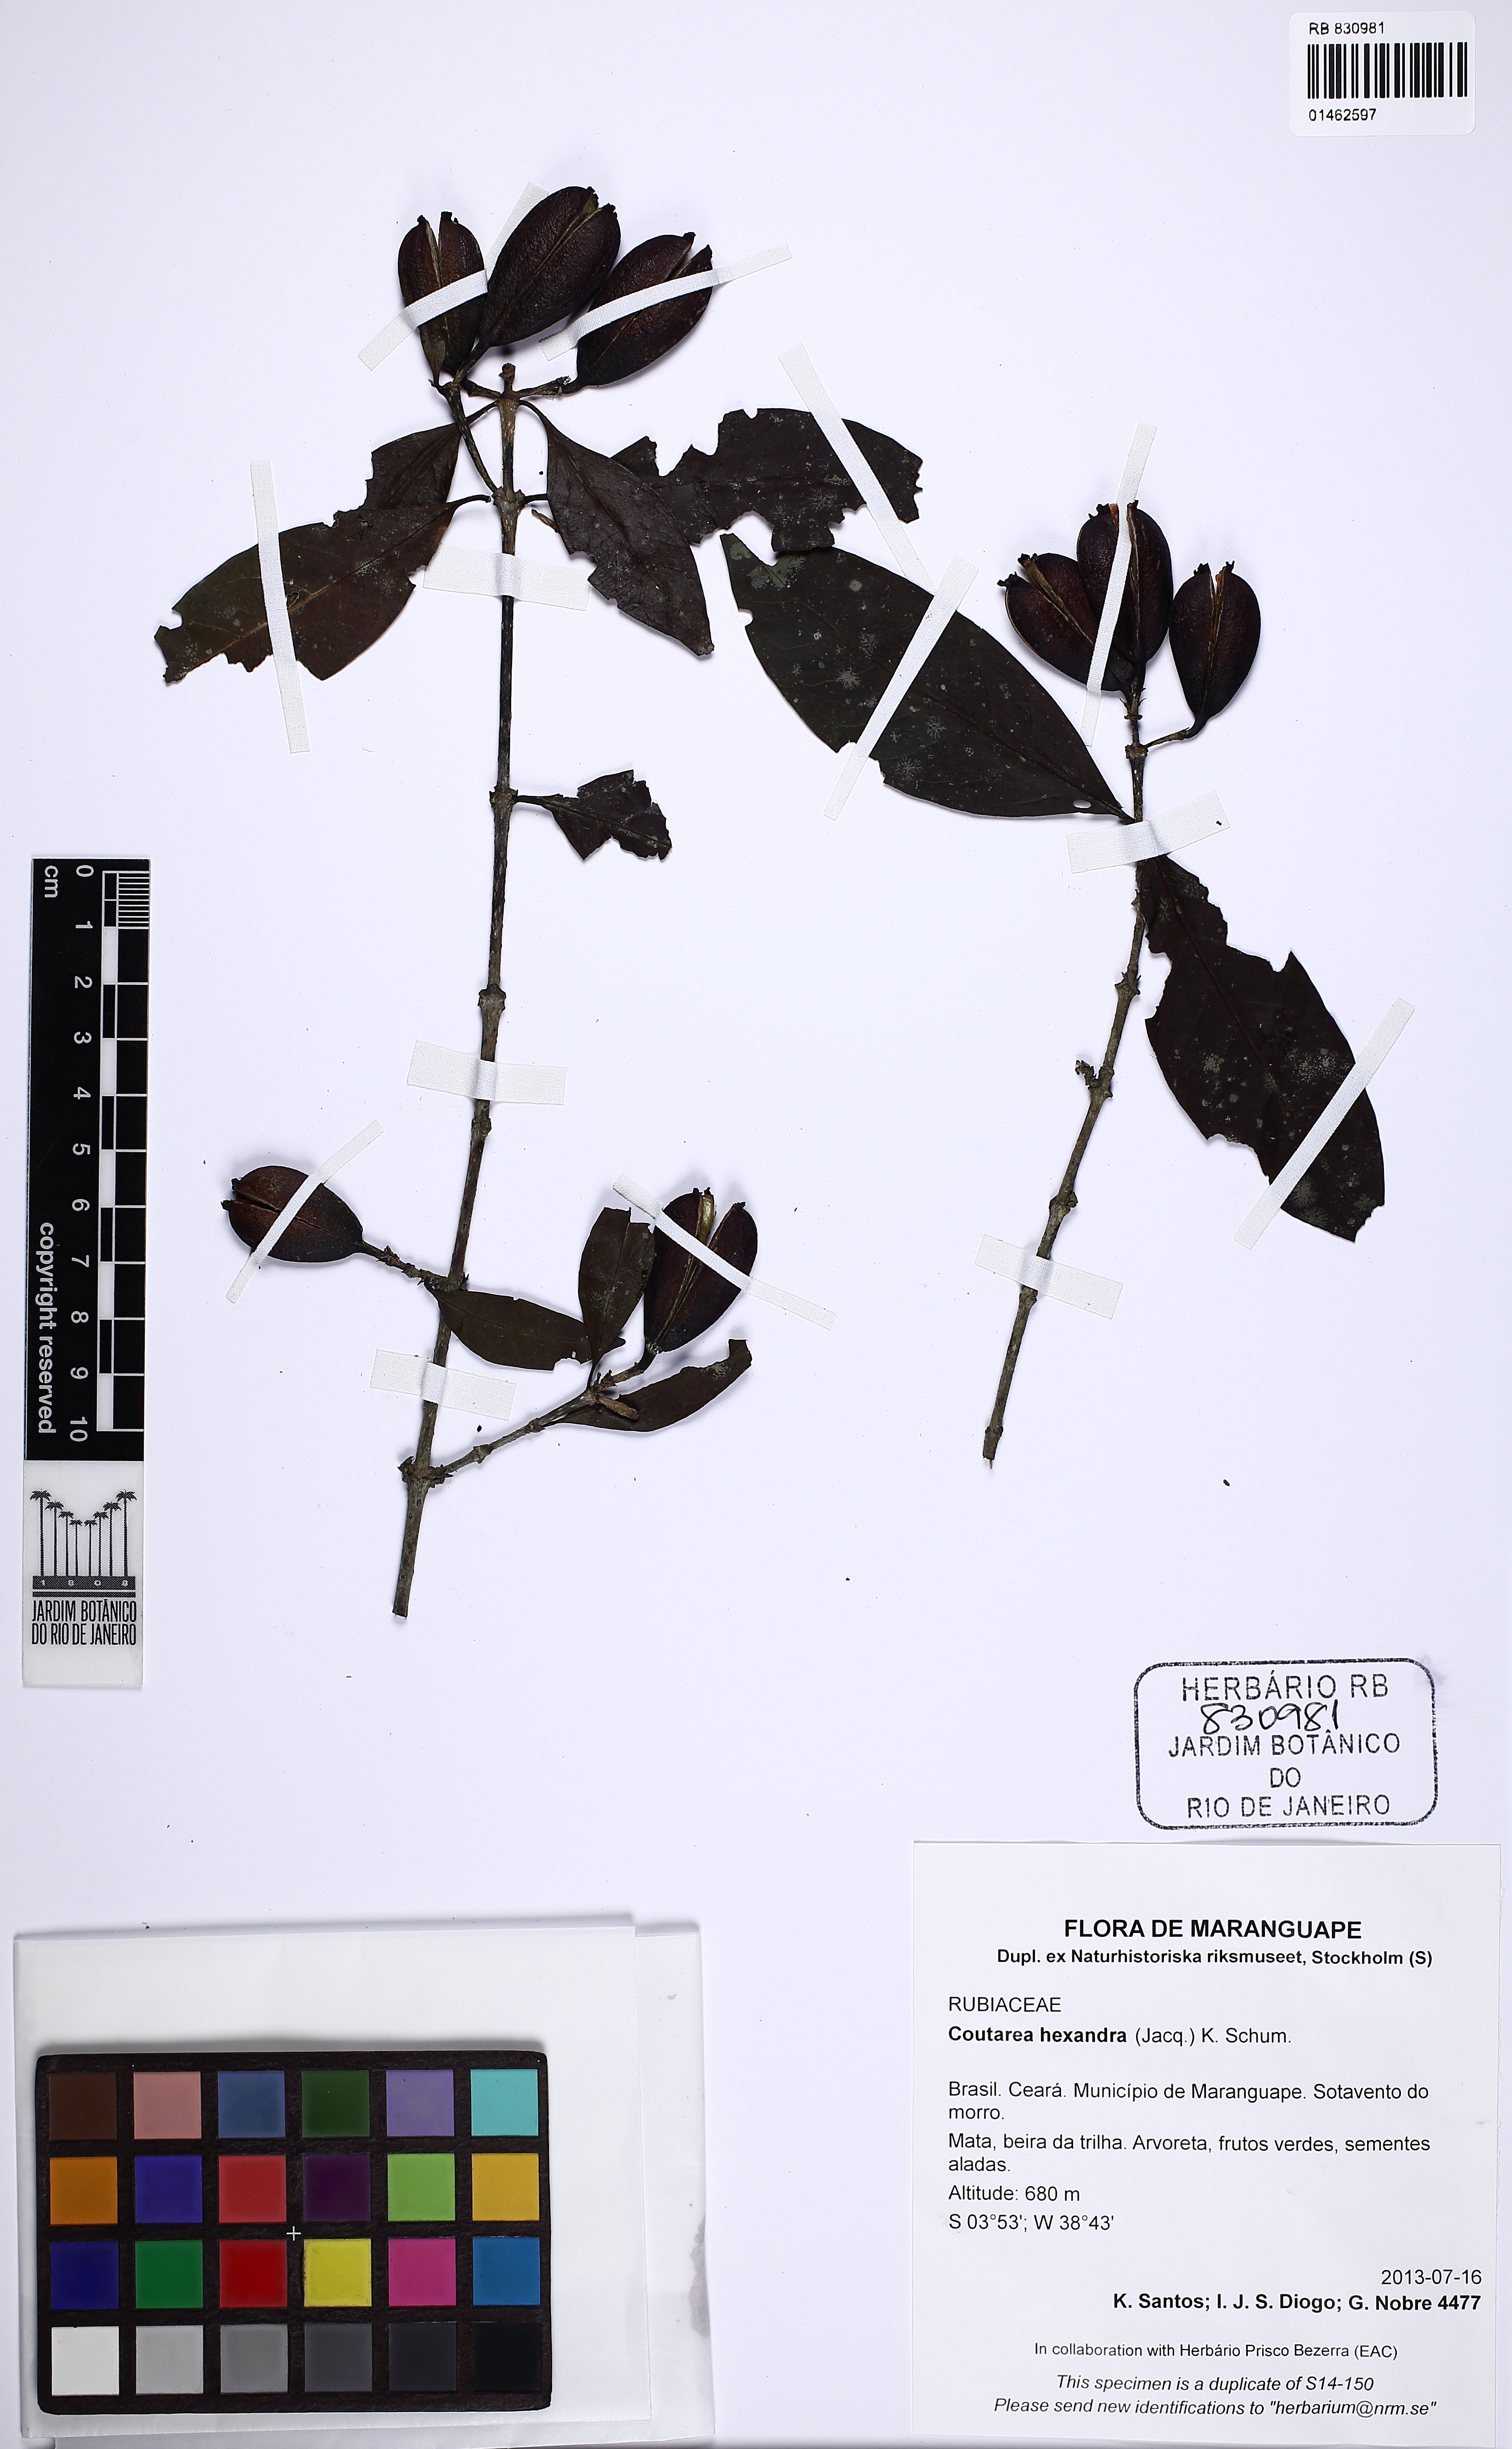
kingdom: Plantae
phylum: Tracheophyta
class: Magnoliopsida
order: Gentianales
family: Rubiaceae
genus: Coutarea
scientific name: Coutarea hexandra
